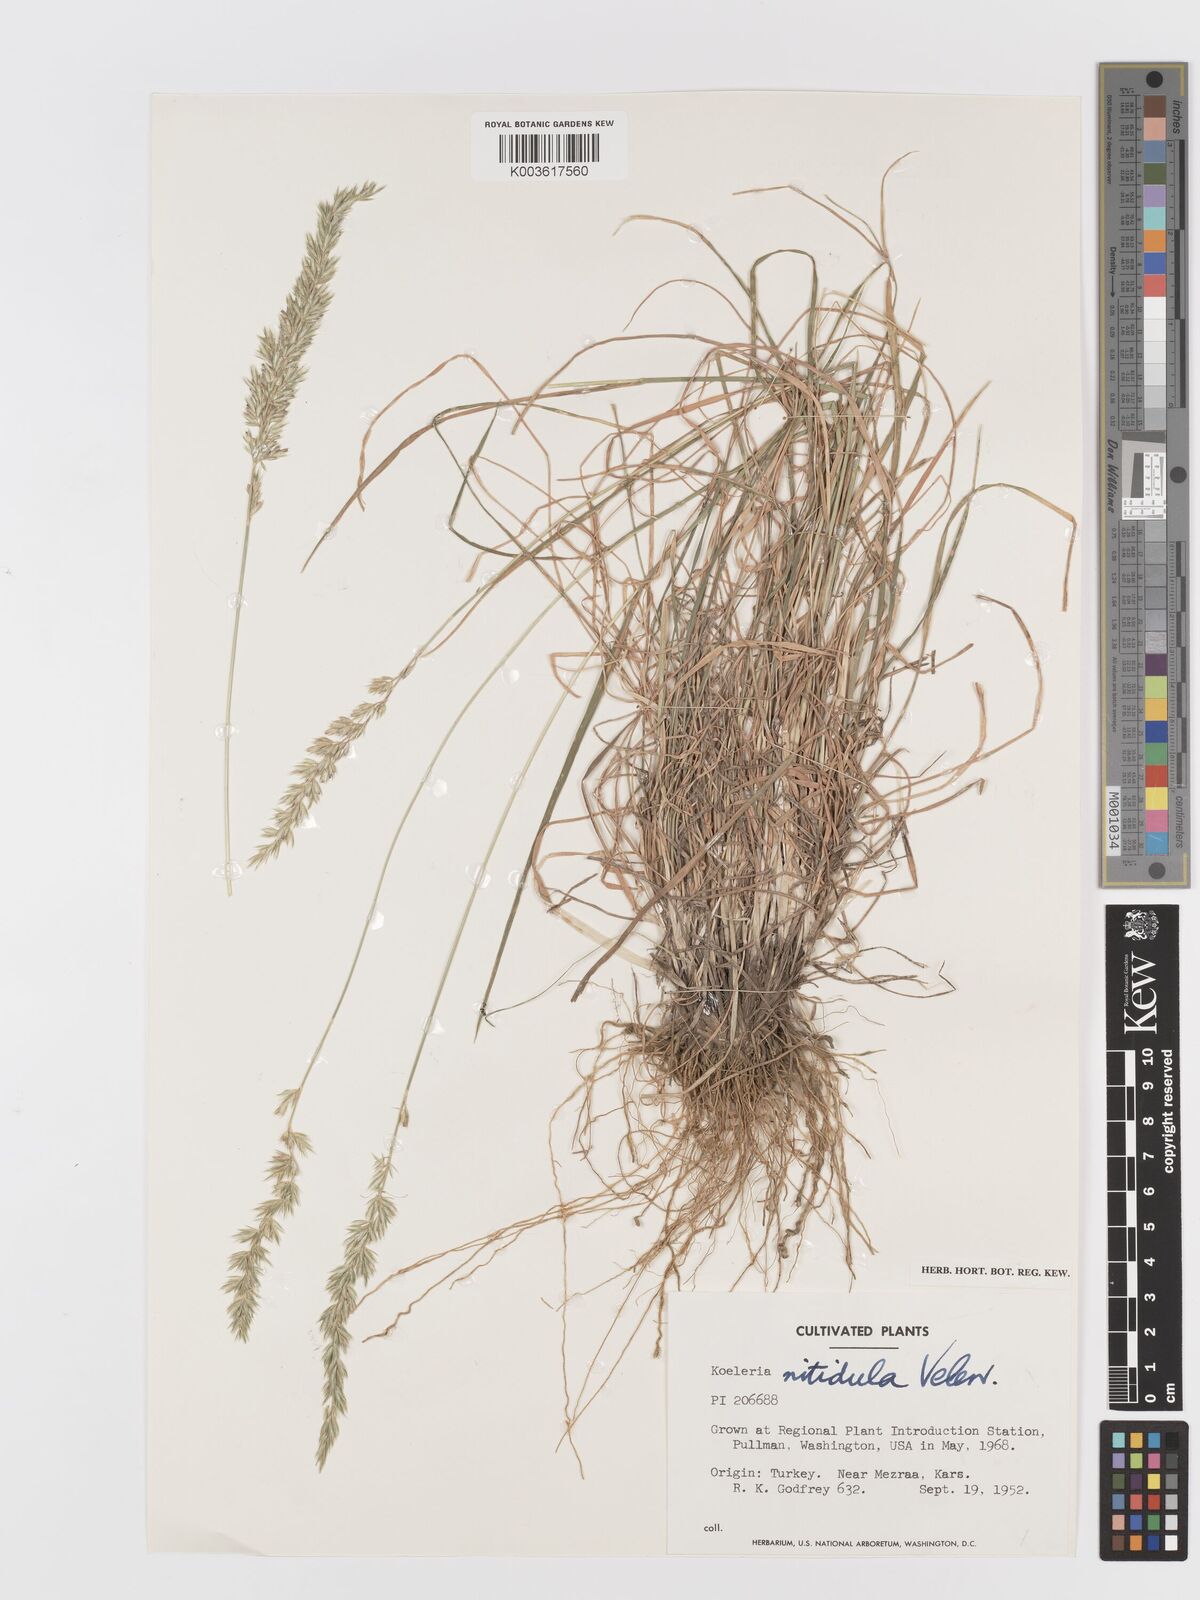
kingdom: Plantae
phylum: Tracheophyta
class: Liliopsida
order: Poales
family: Poaceae
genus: Koeleria
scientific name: Koeleria nitidula
